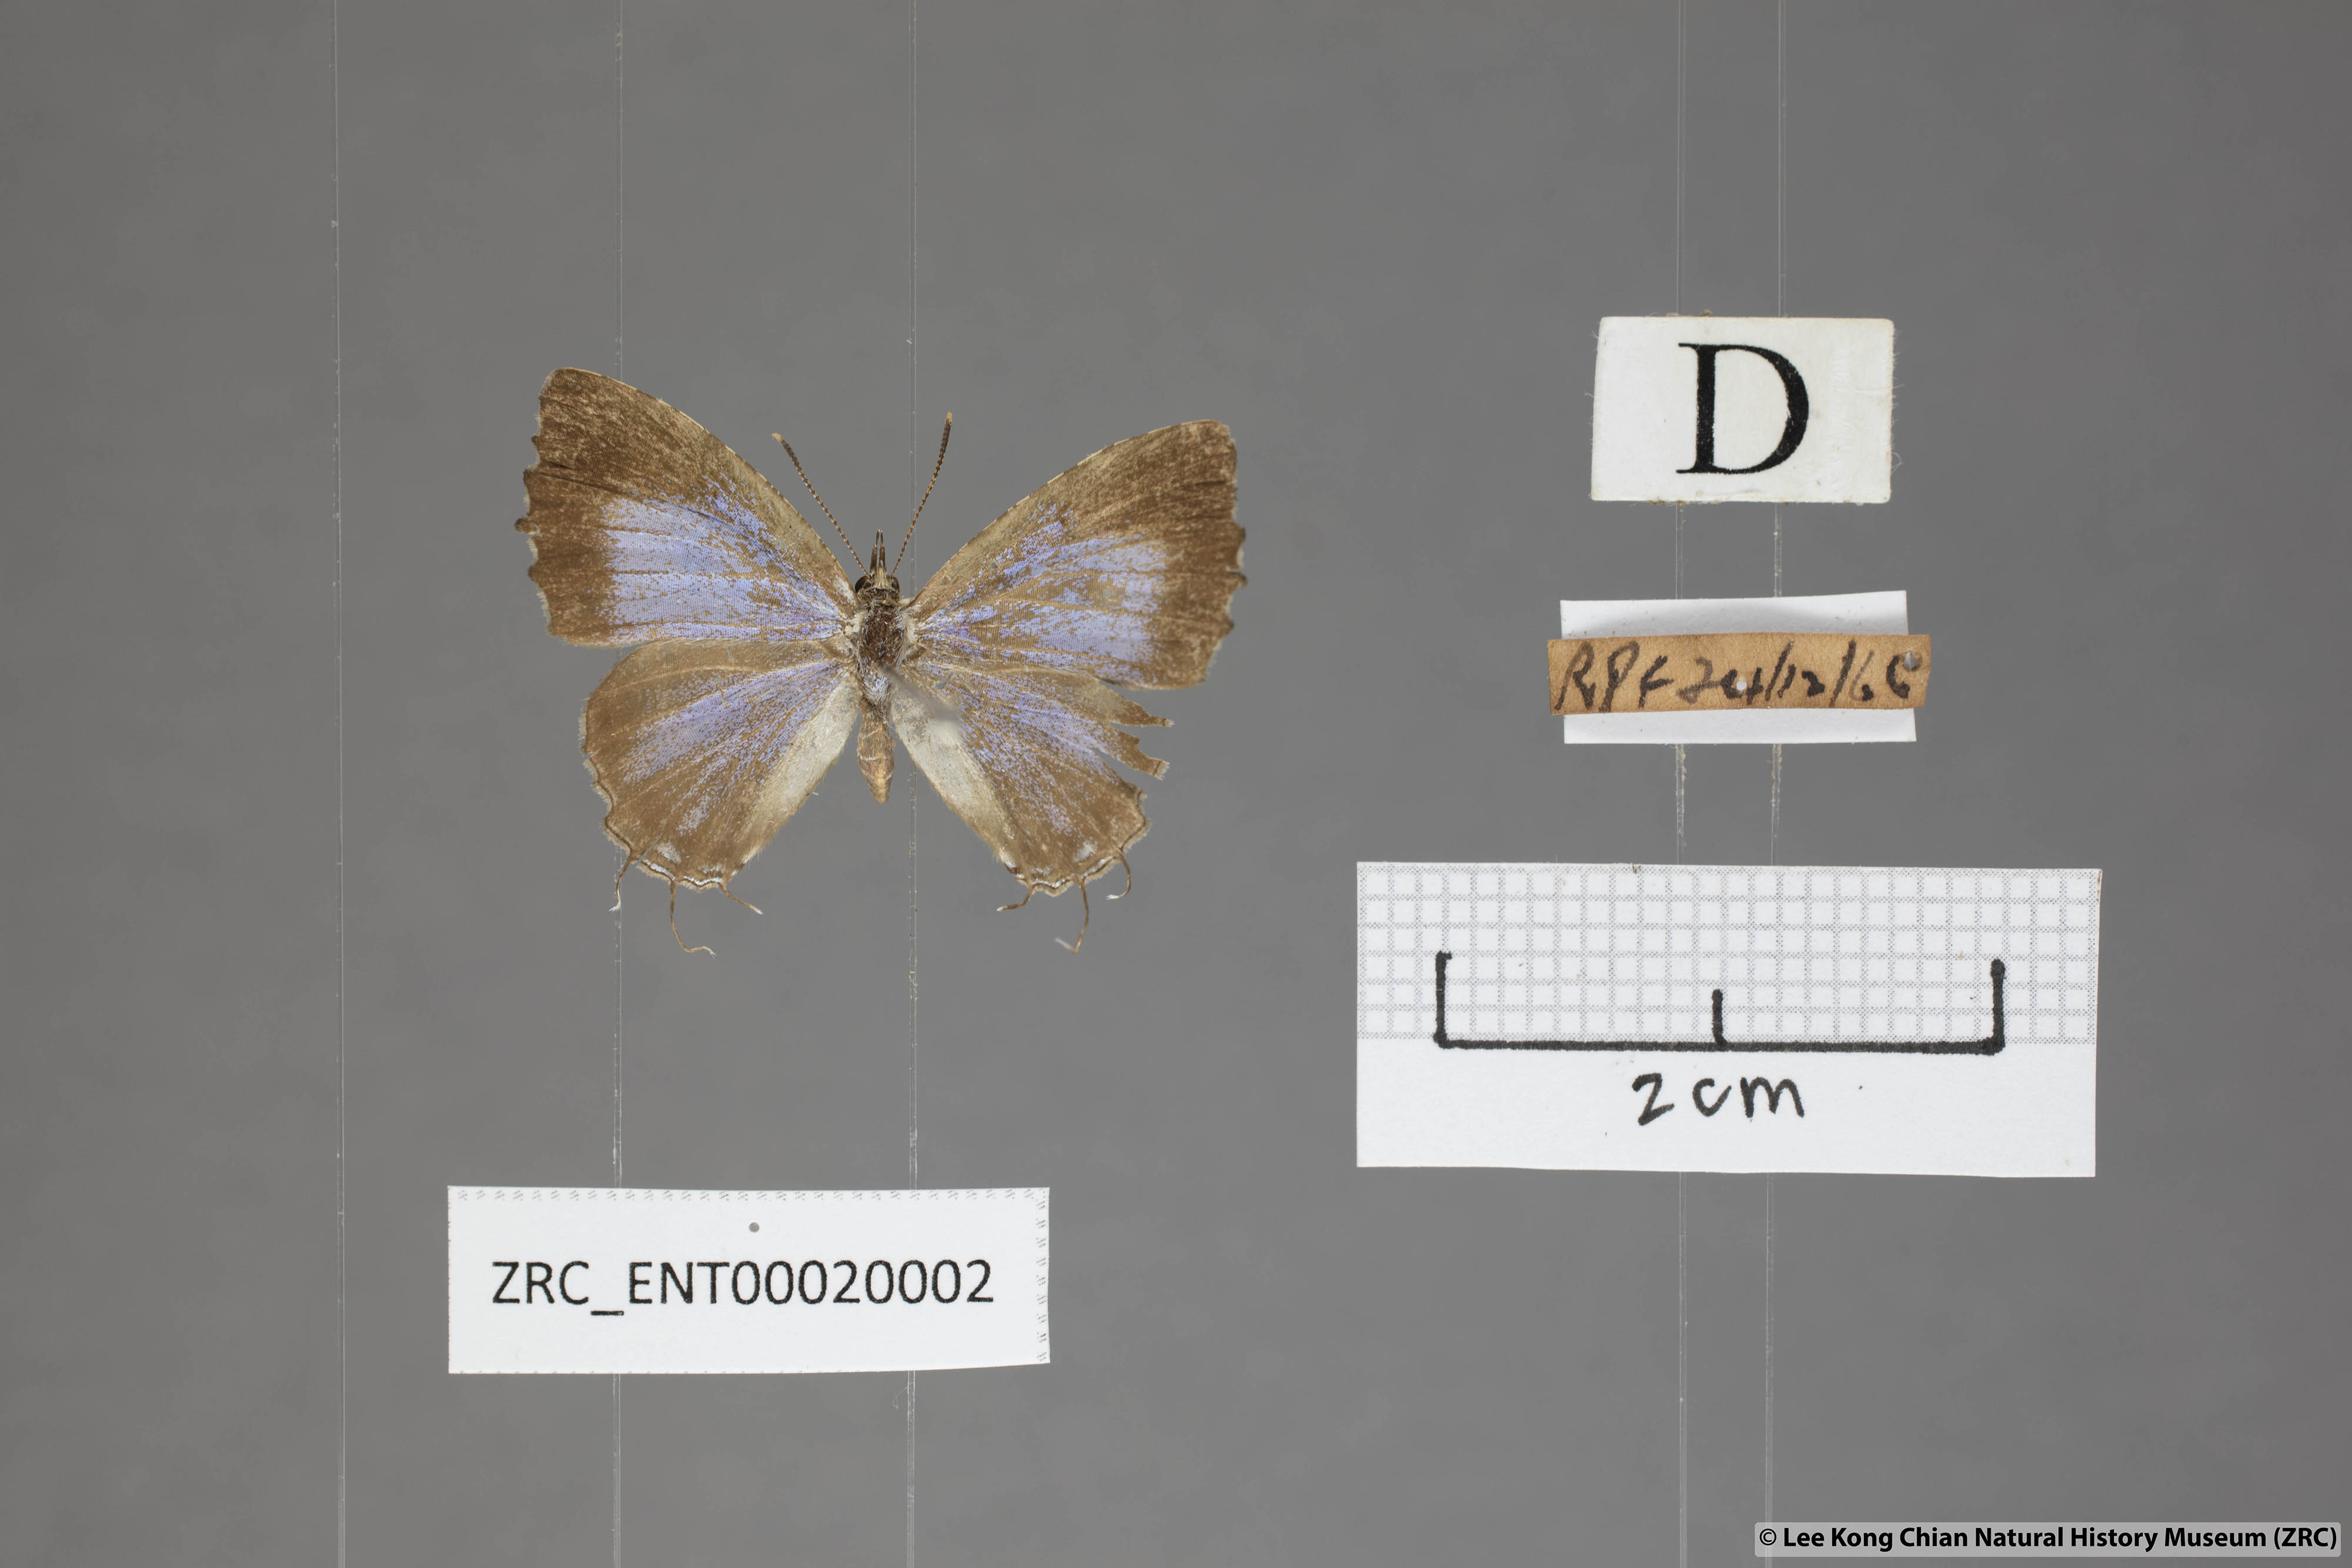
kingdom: Animalia
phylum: Arthropoda
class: Insecta
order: Lepidoptera
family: Lycaenidae
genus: Catapaecilma
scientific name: Catapaecilma elegans
